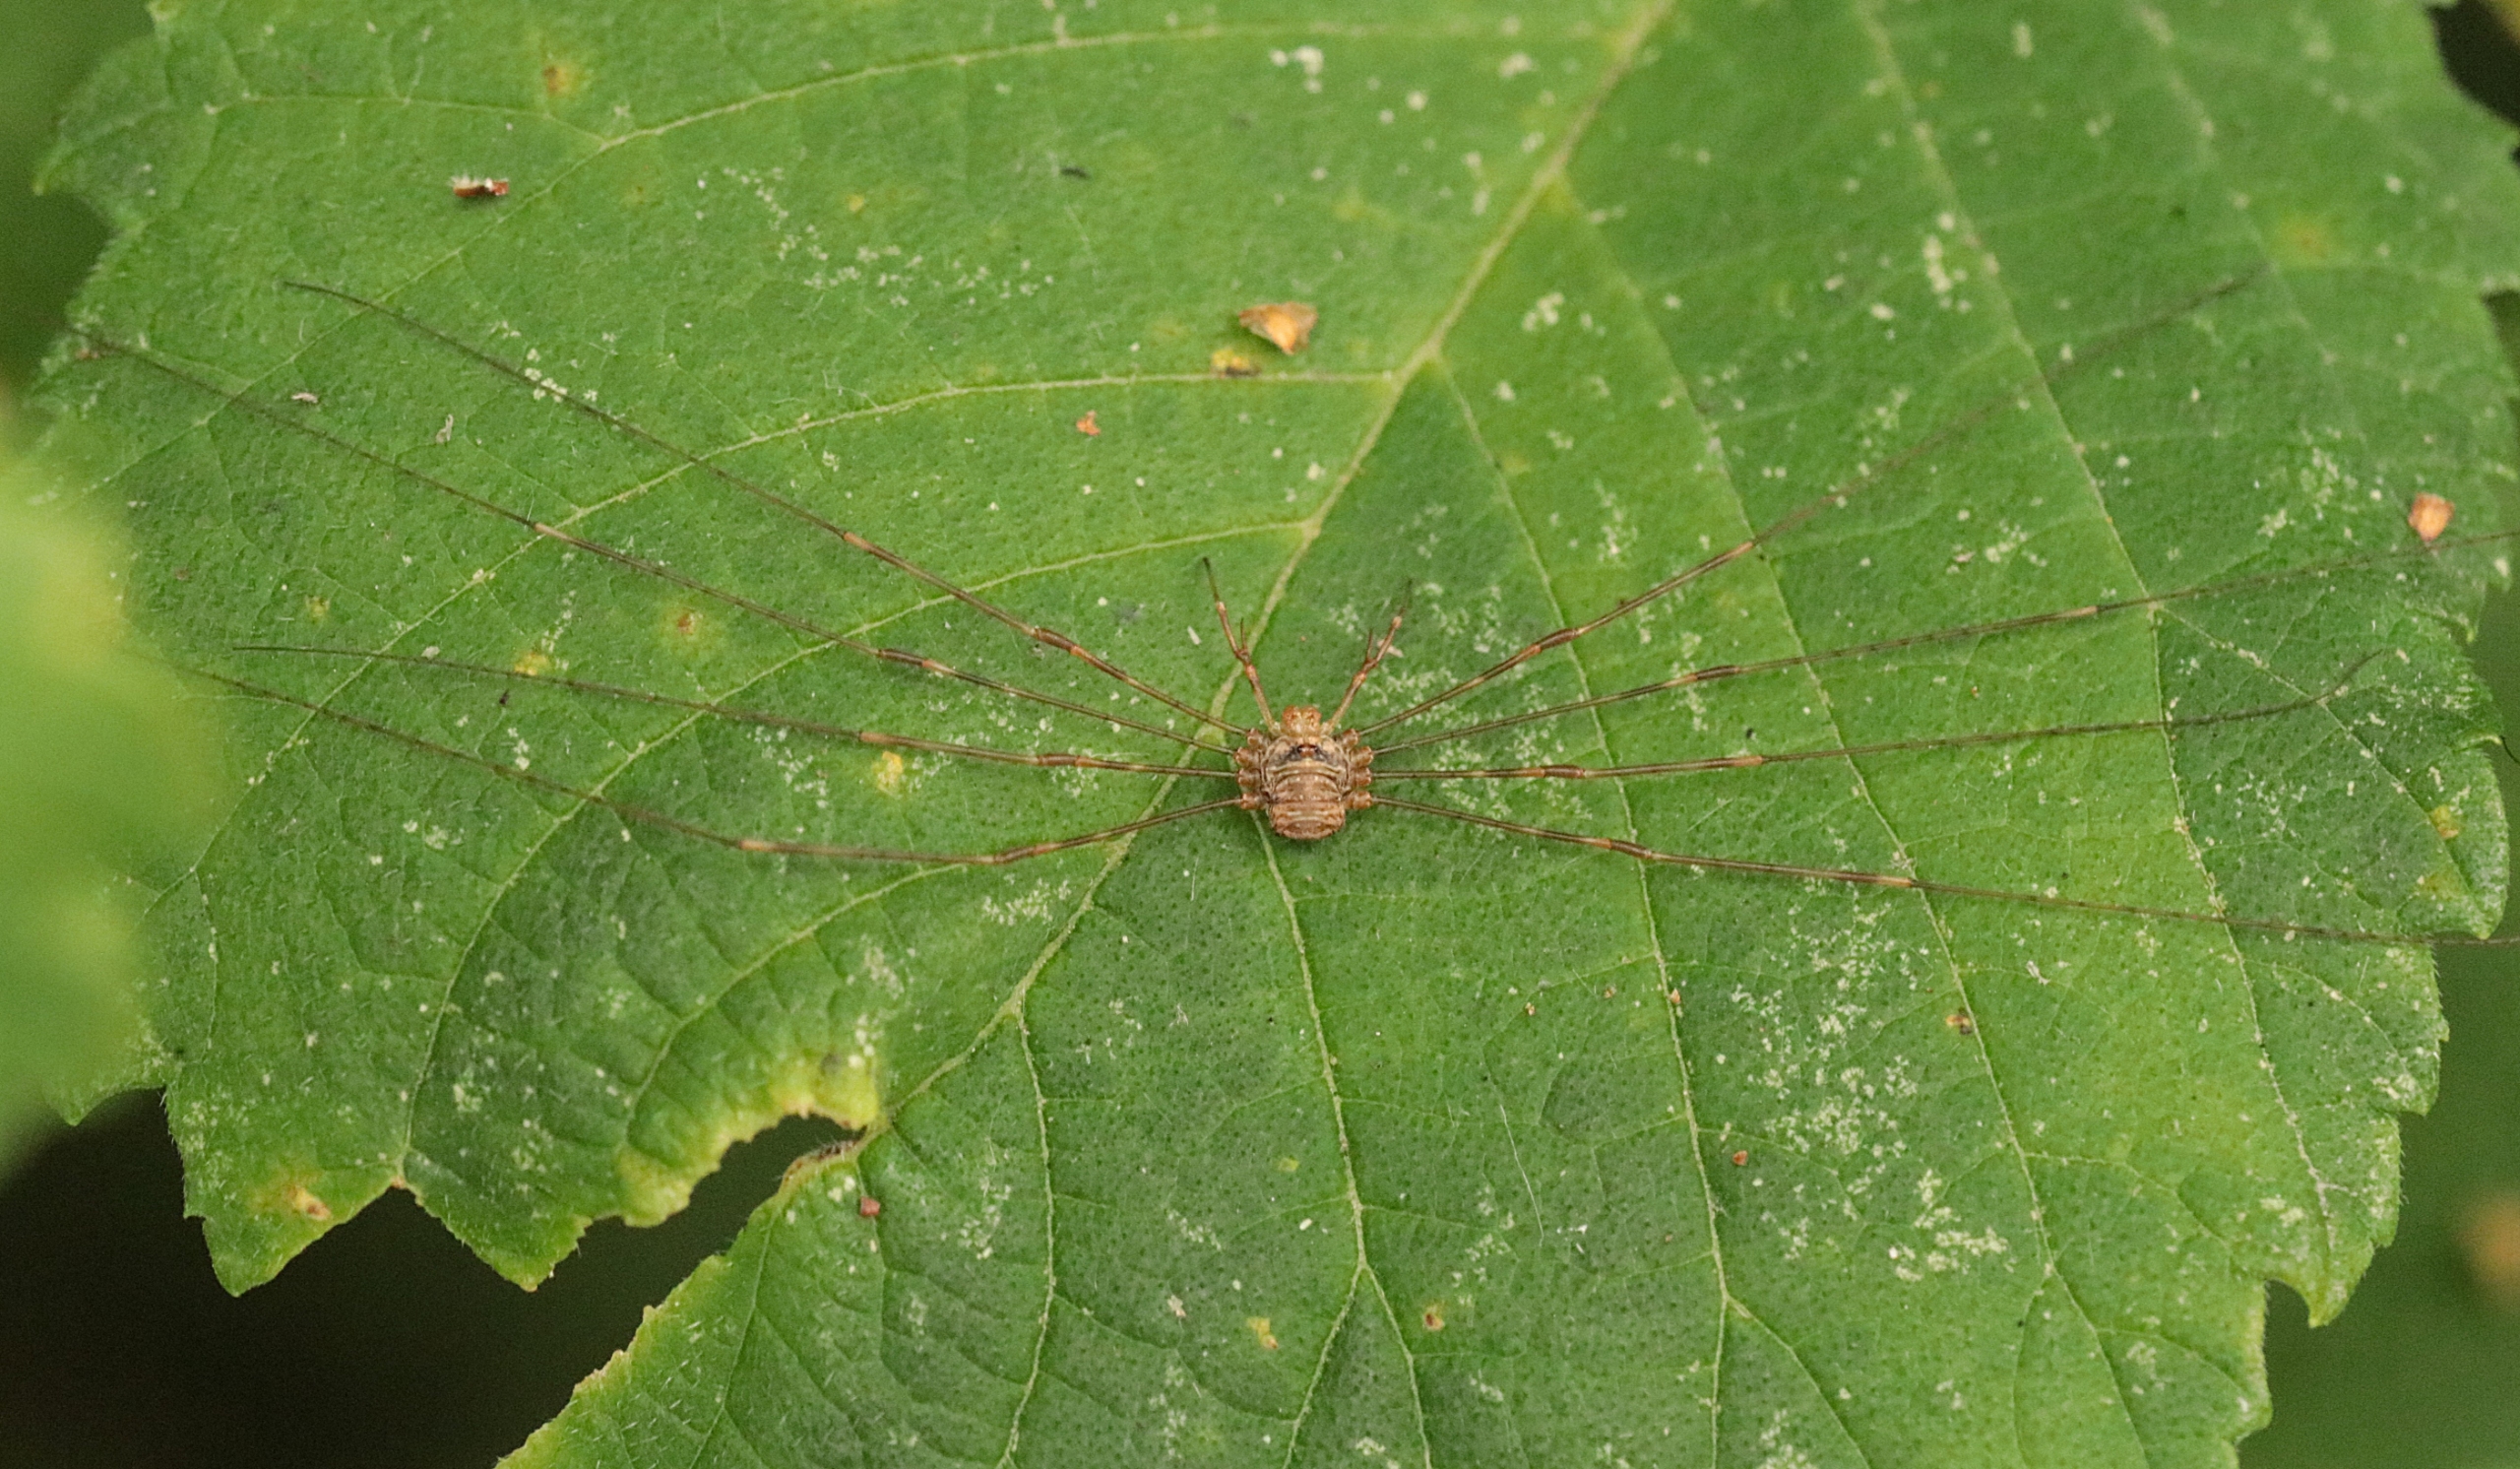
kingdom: Animalia
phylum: Arthropoda
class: Arachnida
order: Opiliones
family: Phalangiidae
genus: Dicranopalpus
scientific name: Dicranopalpus ramosus
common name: Gaffelmejer
